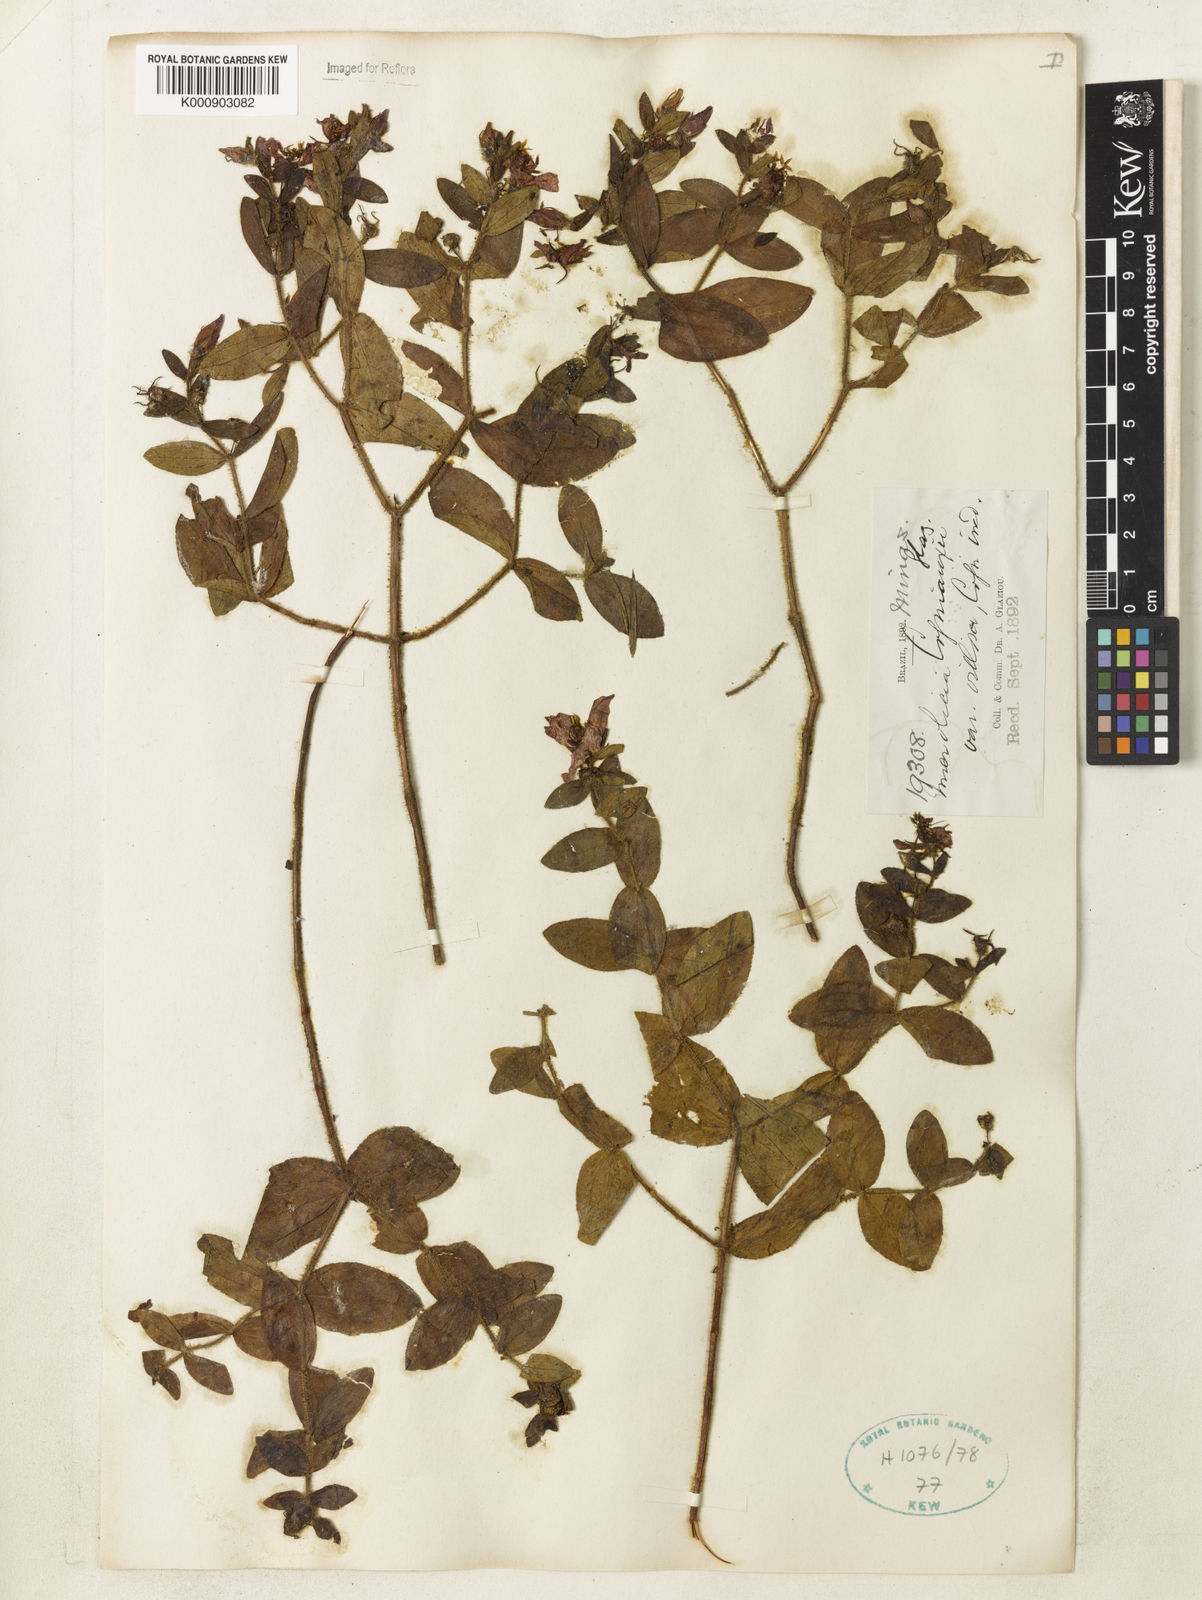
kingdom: Plantae
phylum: Tracheophyta
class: Magnoliopsida
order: Myrtales
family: Melastomataceae
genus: Microlicia
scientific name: Microlicia cogniauxii
